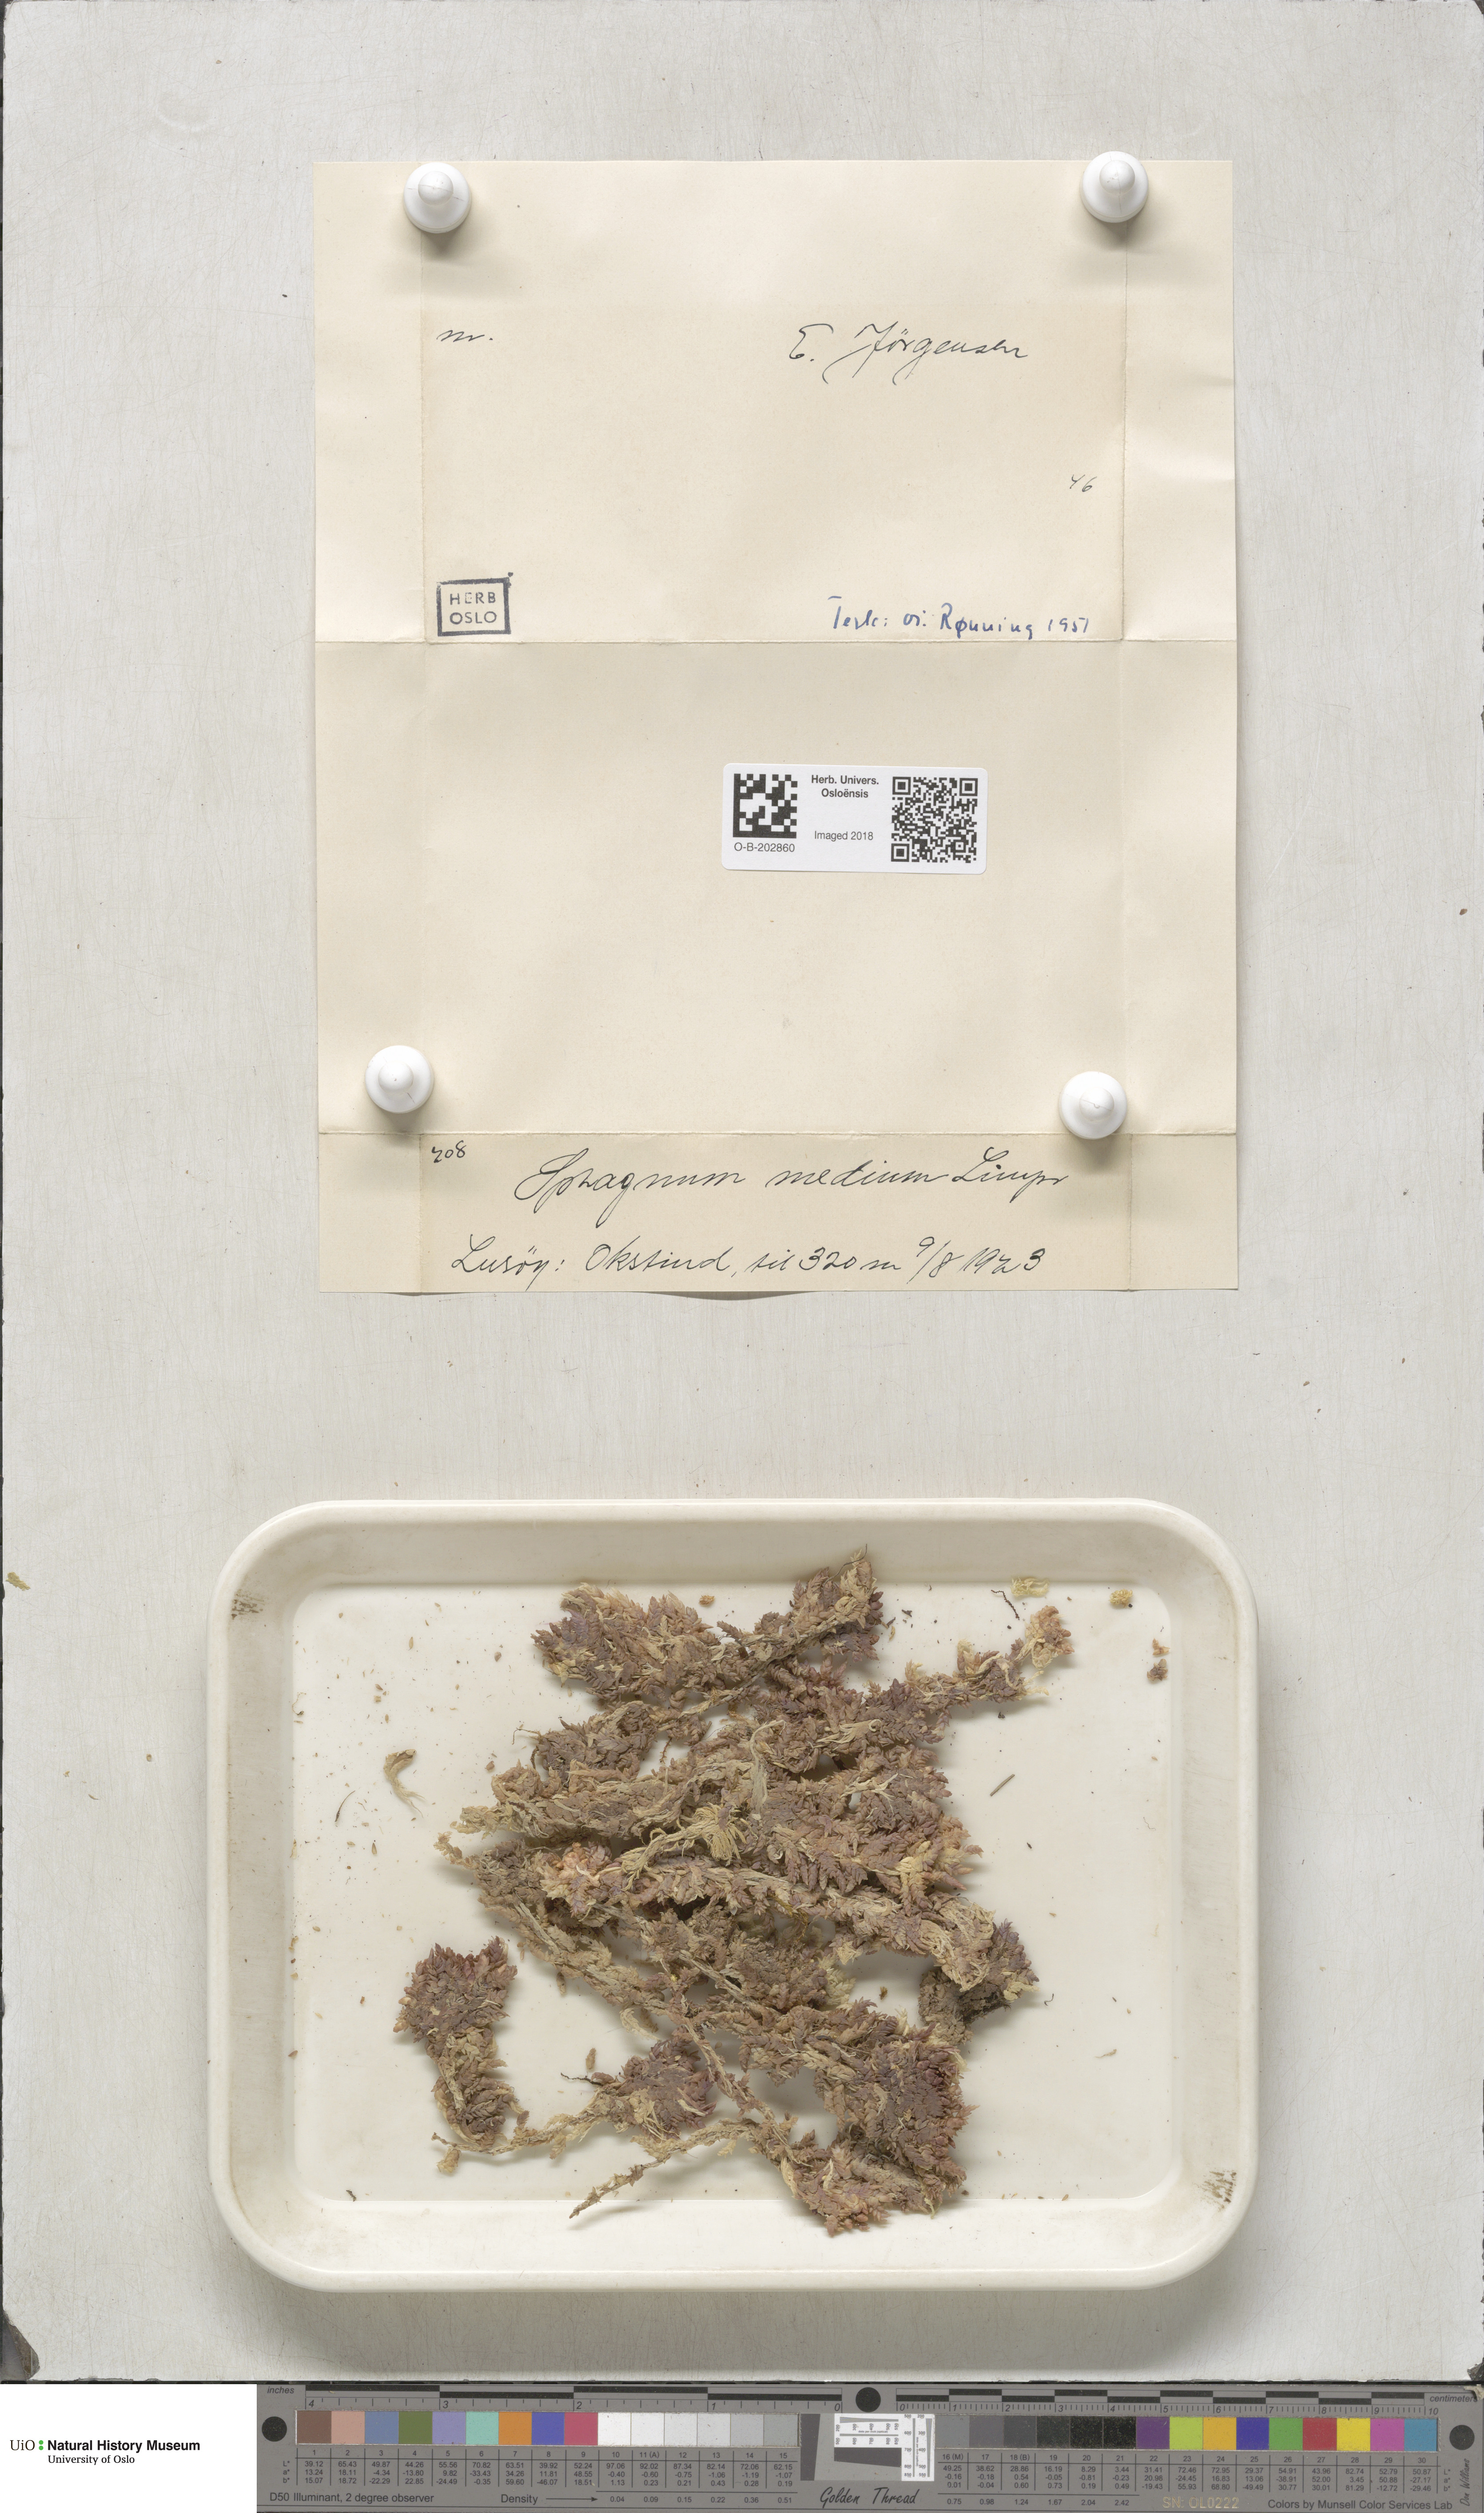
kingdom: Plantae
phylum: Bryophyta
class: Sphagnopsida
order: Sphagnales
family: Sphagnaceae
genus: Sphagnum
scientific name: Sphagnum magellanicum
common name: Magellan's peat moss
